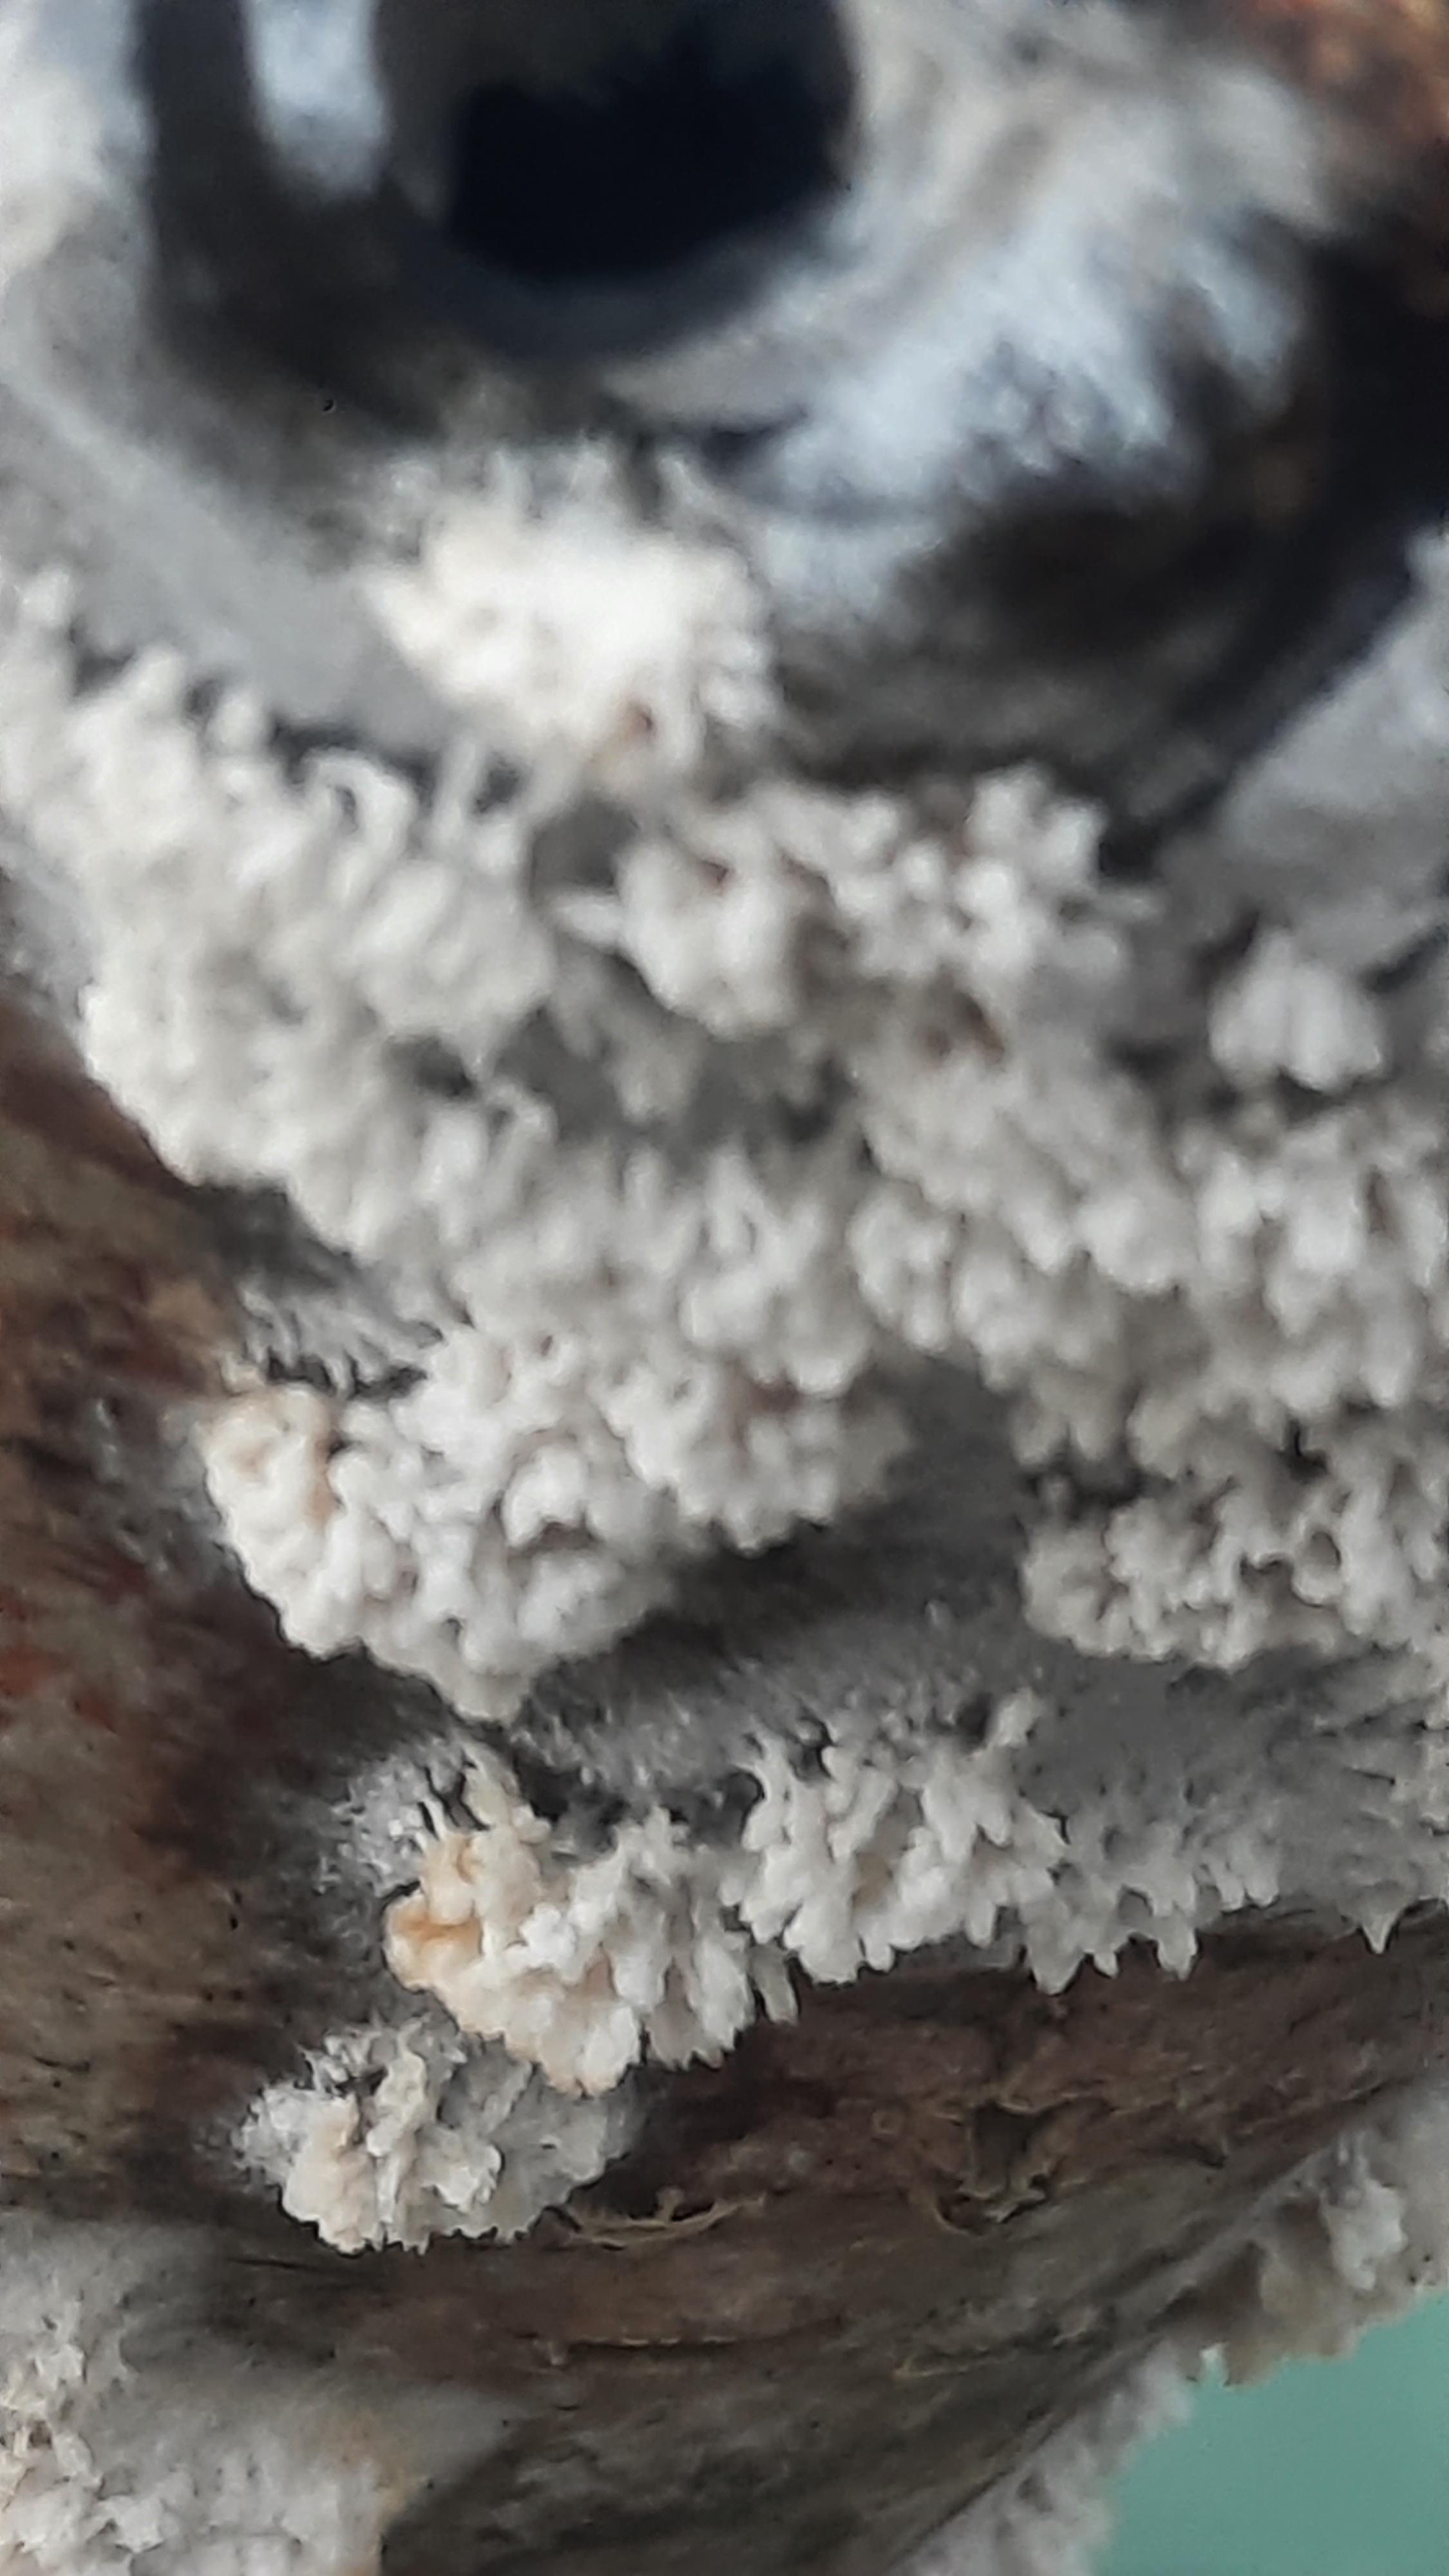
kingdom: Fungi
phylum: Basidiomycota
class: Agaricomycetes
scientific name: Agaricomycetes
